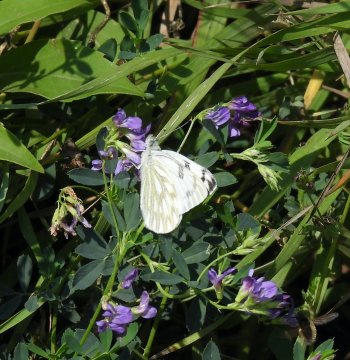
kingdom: Animalia
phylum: Arthropoda
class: Insecta
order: Lepidoptera
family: Pieridae
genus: Pontia
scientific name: Pontia occidentalis
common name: Western White
